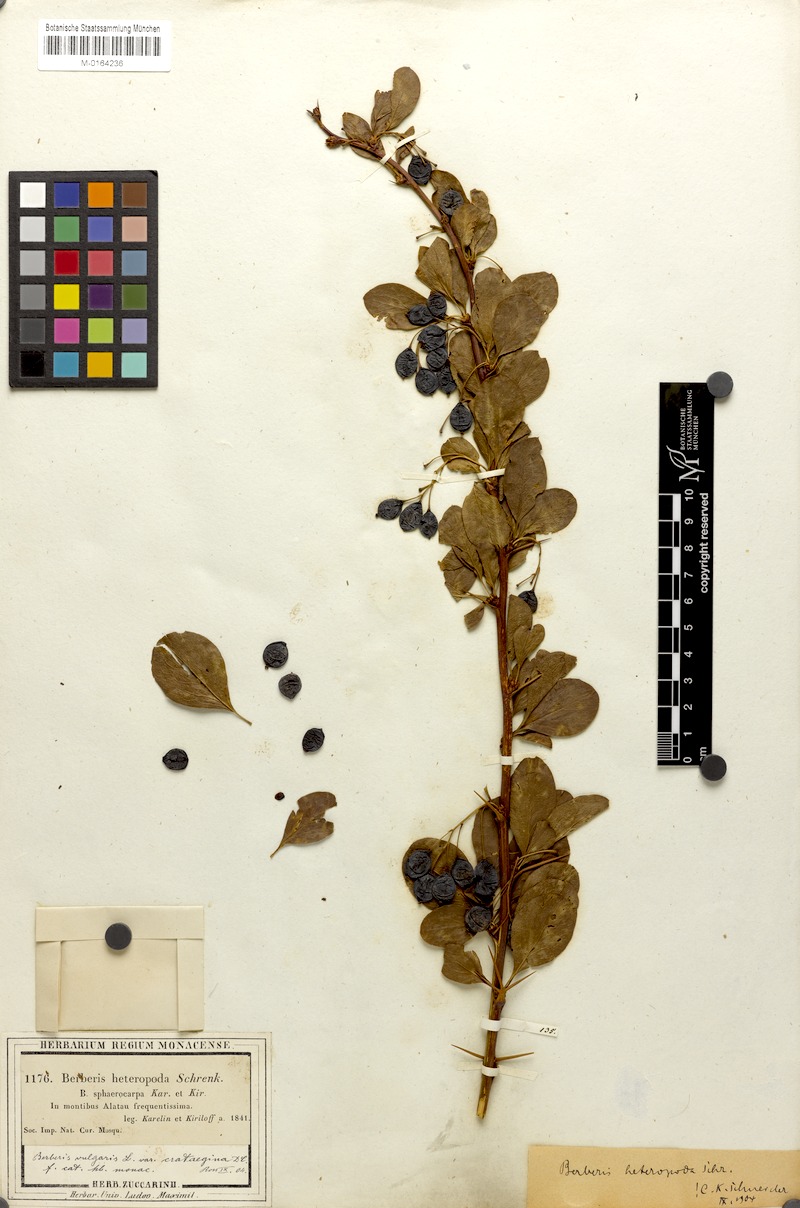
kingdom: Plantae
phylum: Tracheophyta
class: Magnoliopsida
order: Ranunculales
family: Berberidaceae
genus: Berberis
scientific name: Berberis heteropoda
